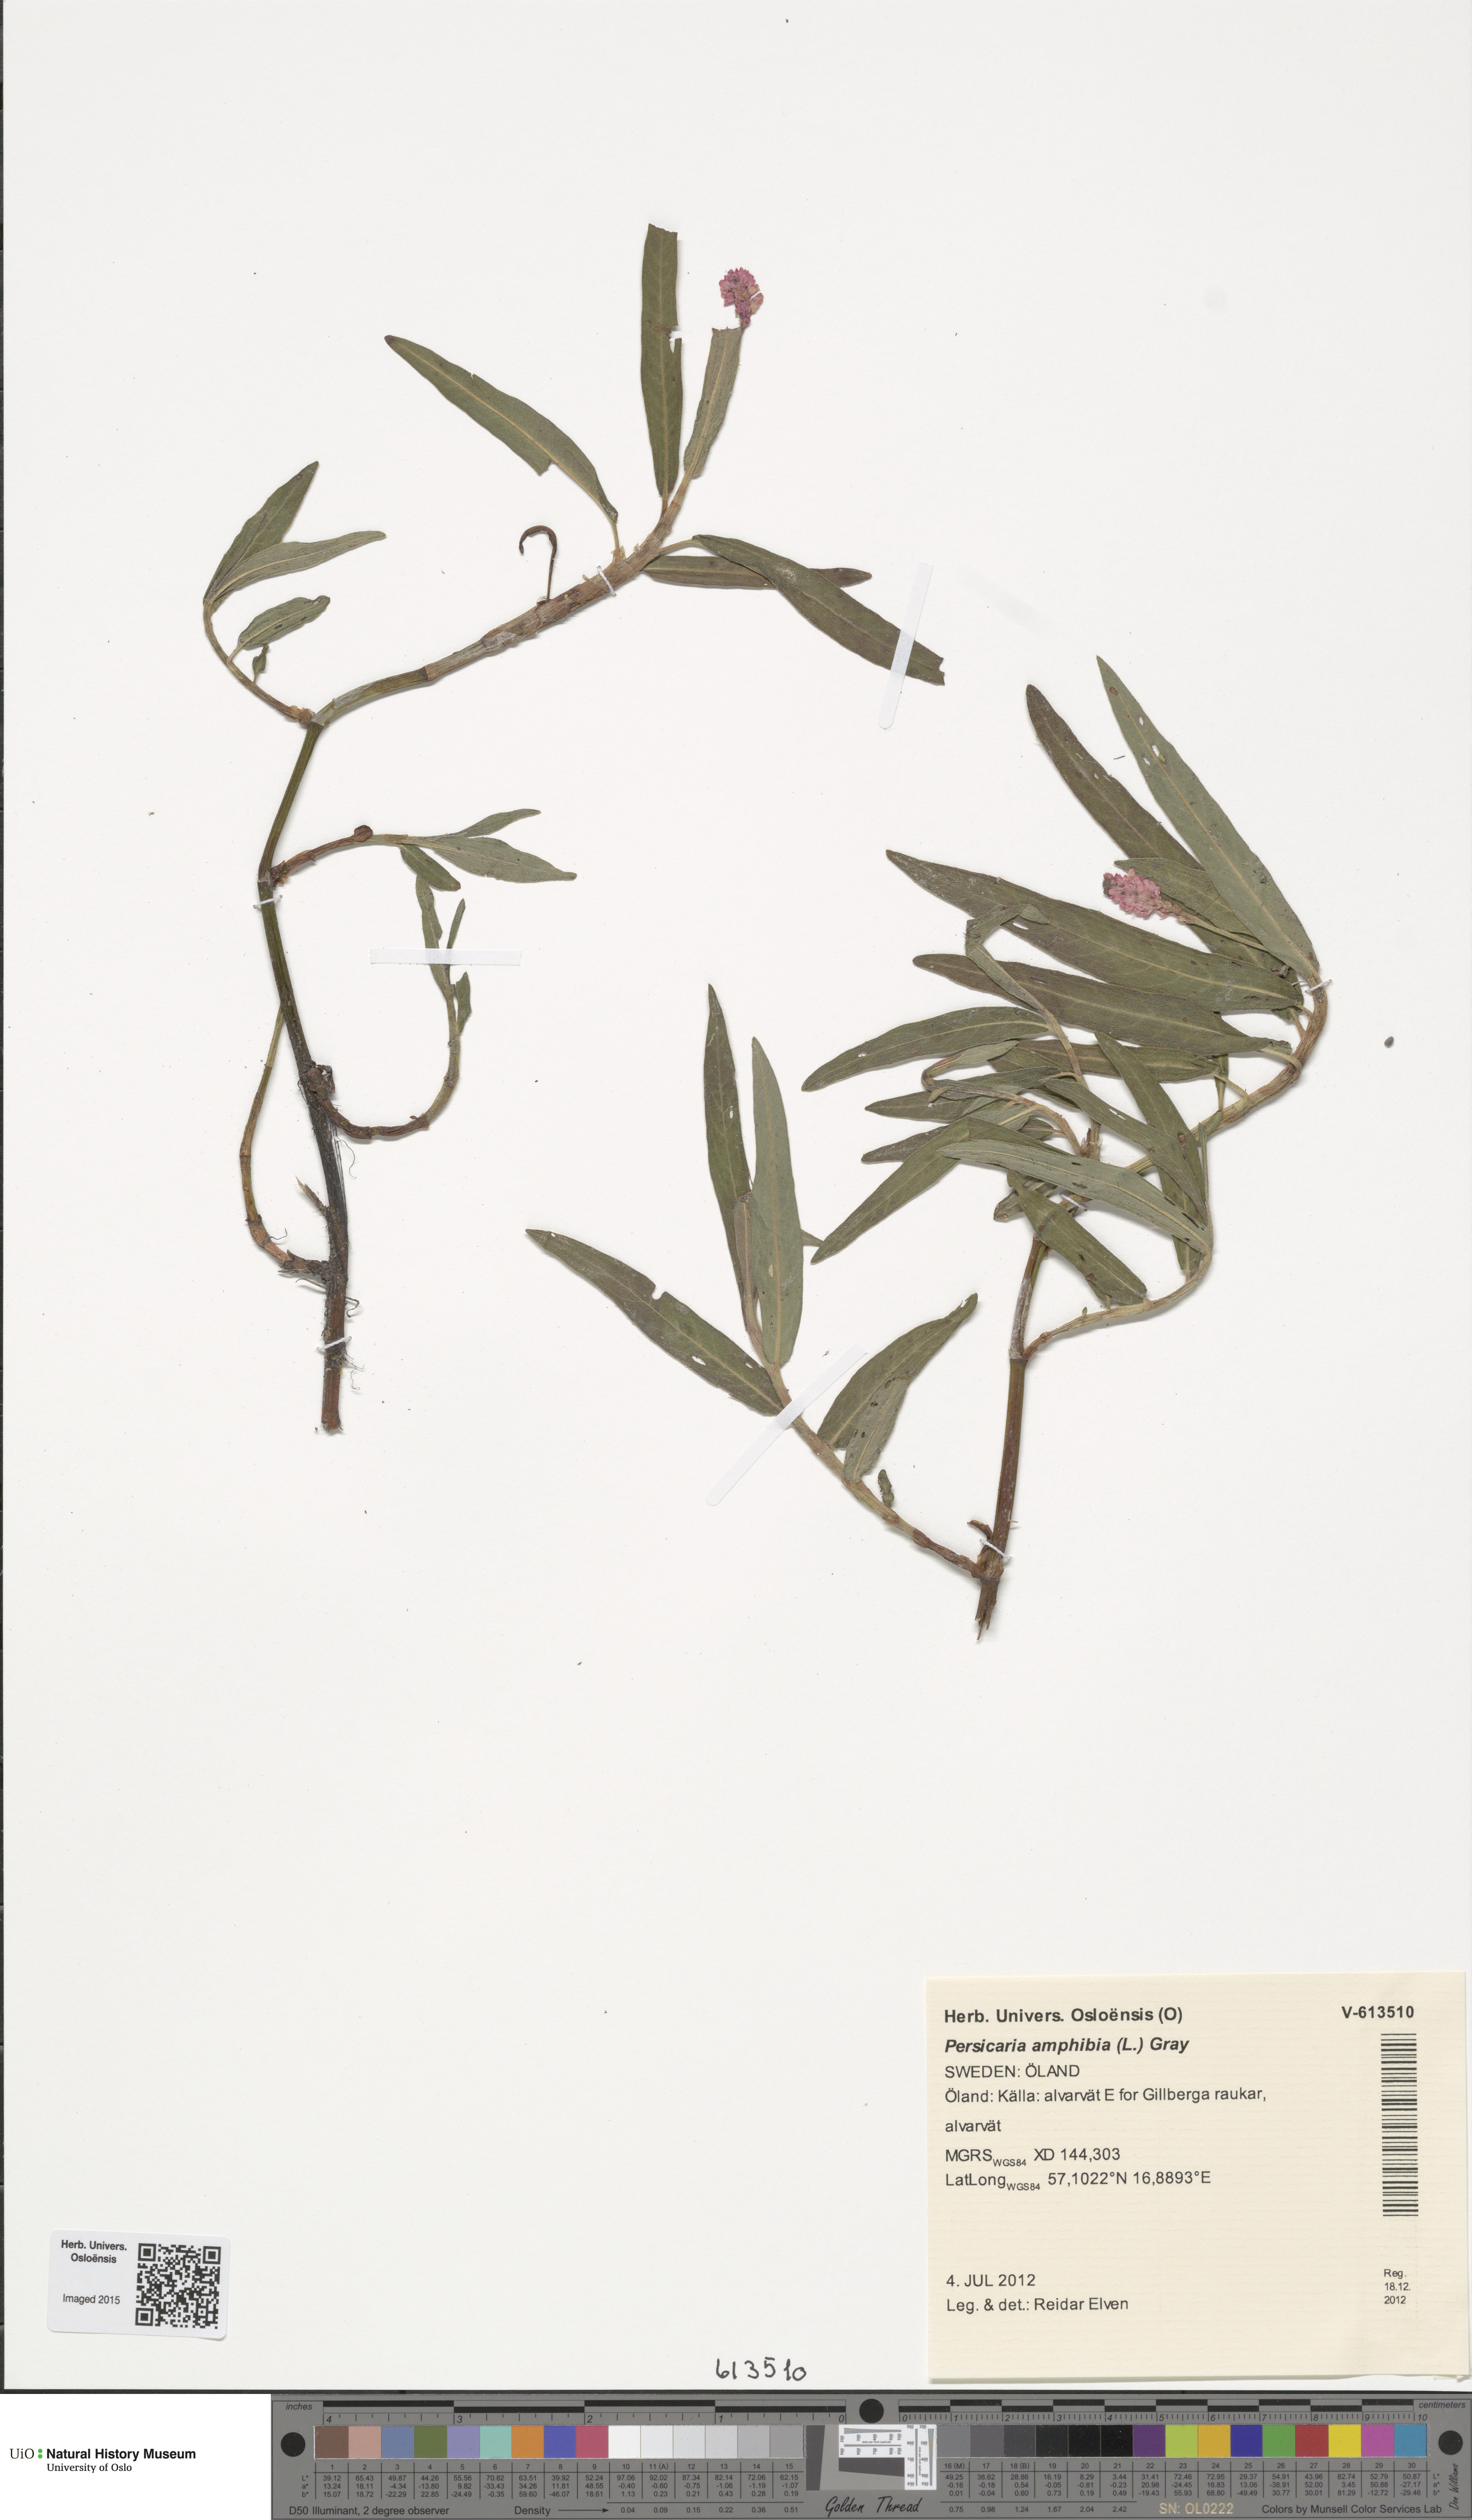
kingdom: Plantae
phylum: Tracheophyta
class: Magnoliopsida
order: Caryophyllales
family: Polygonaceae
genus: Persicaria
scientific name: Persicaria amphibia
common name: Amphibious bistort
